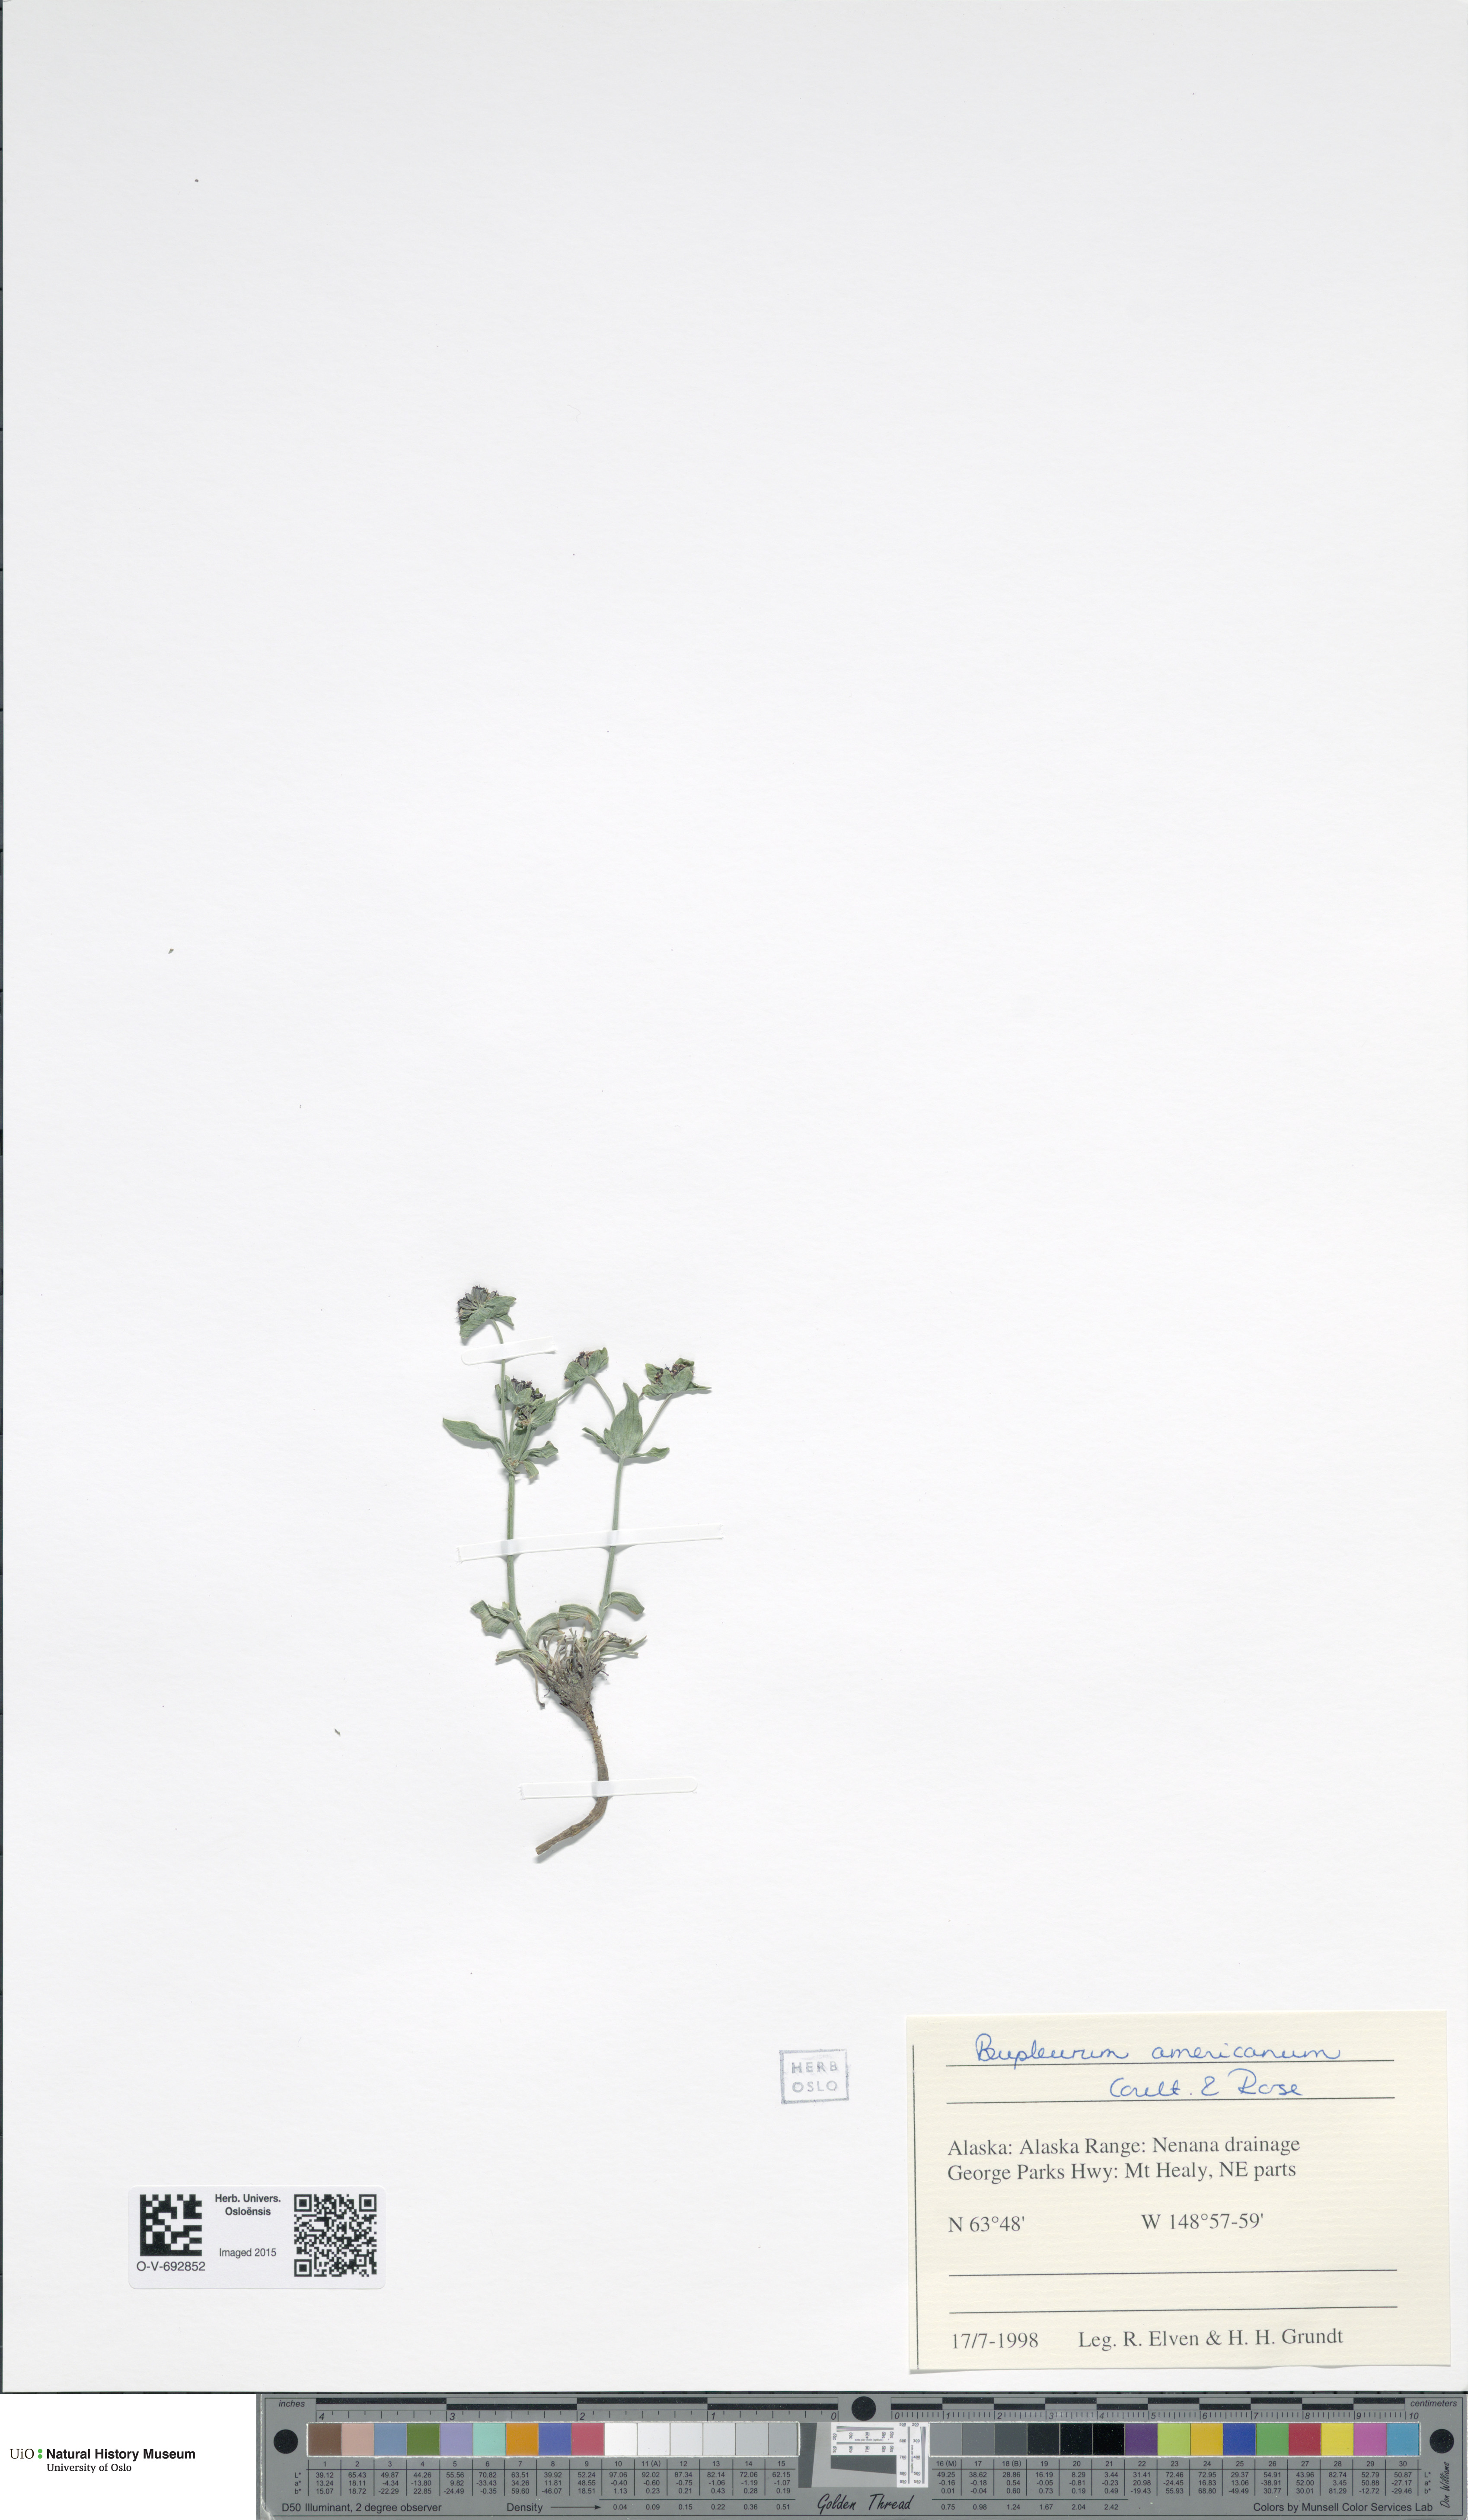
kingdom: Plantae
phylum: Tracheophyta
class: Magnoliopsida
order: Apiales
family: Apiaceae
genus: Bupleurum
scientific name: Bupleurum americanum
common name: American thoroughwax
